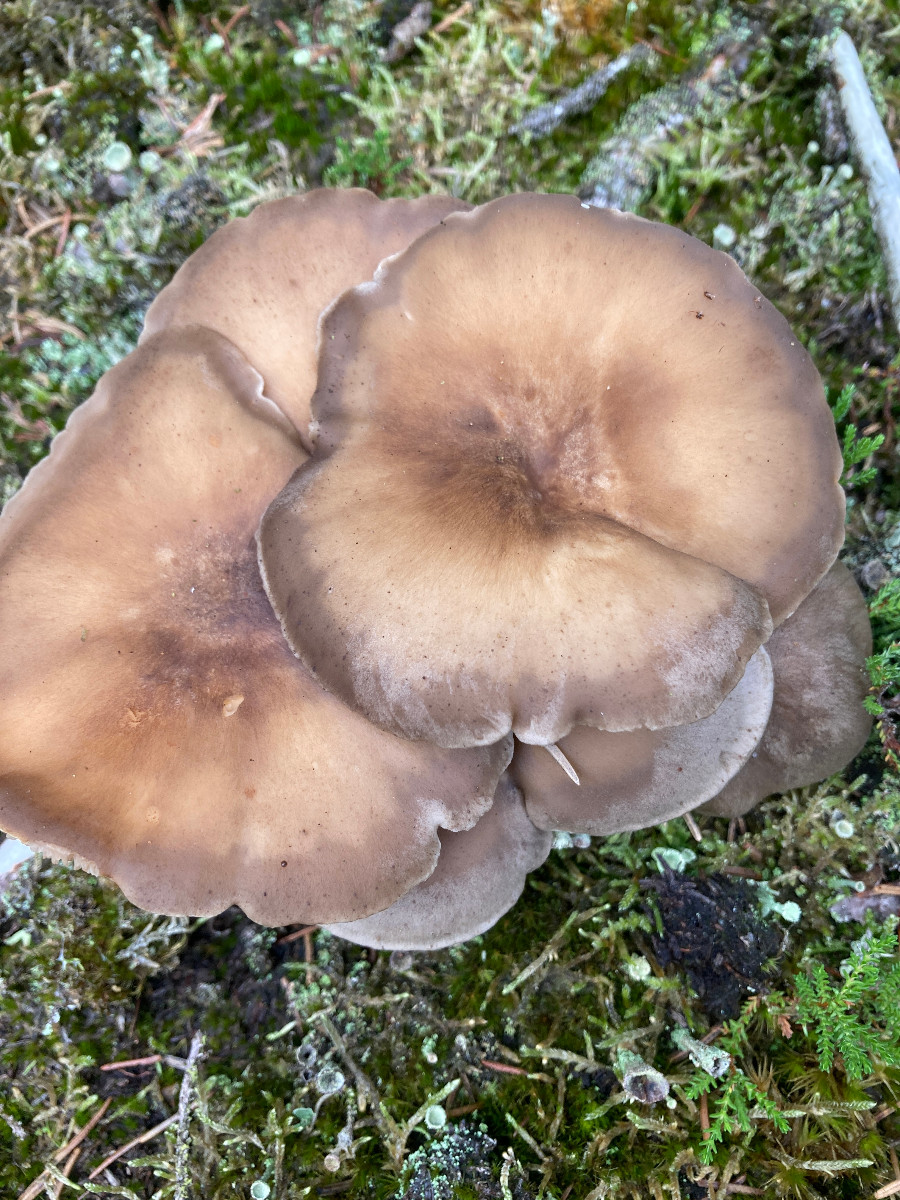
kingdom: Fungi
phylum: Basidiomycota
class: Agaricomycetes
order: Agaricales
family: Lyophyllaceae
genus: Lyophyllum
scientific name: Lyophyllum shimeji
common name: shimeji-gråblad
